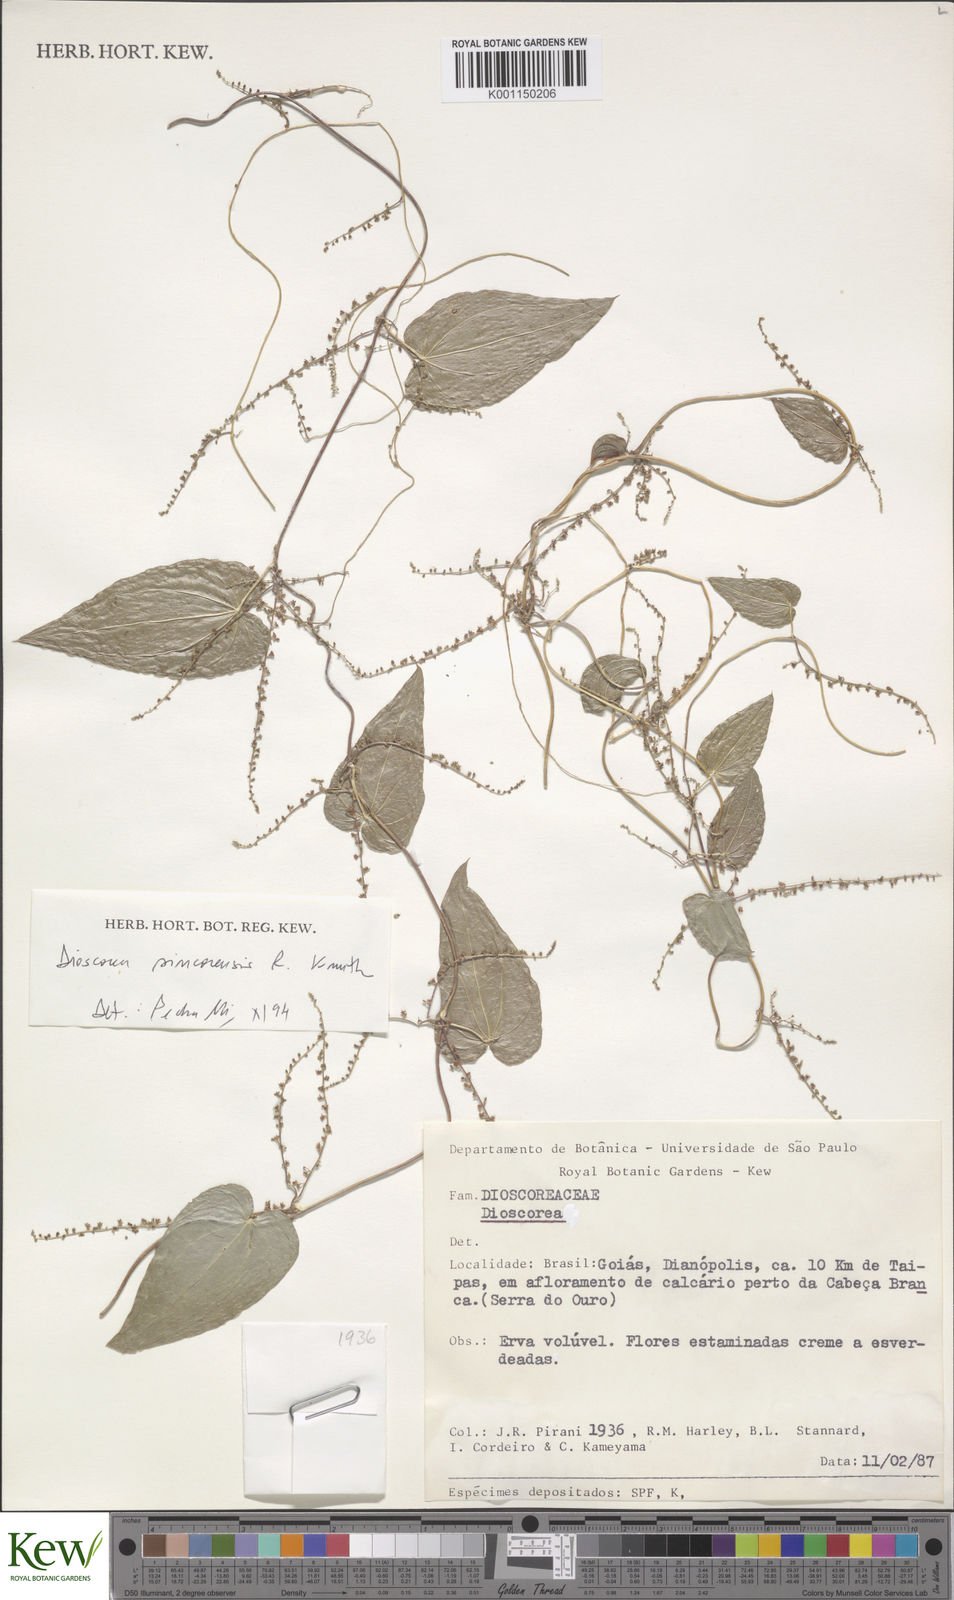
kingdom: Plantae
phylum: Tracheophyta
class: Liliopsida
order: Dioscoreales
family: Dioscoreaceae
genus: Dioscorea
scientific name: Dioscorea
